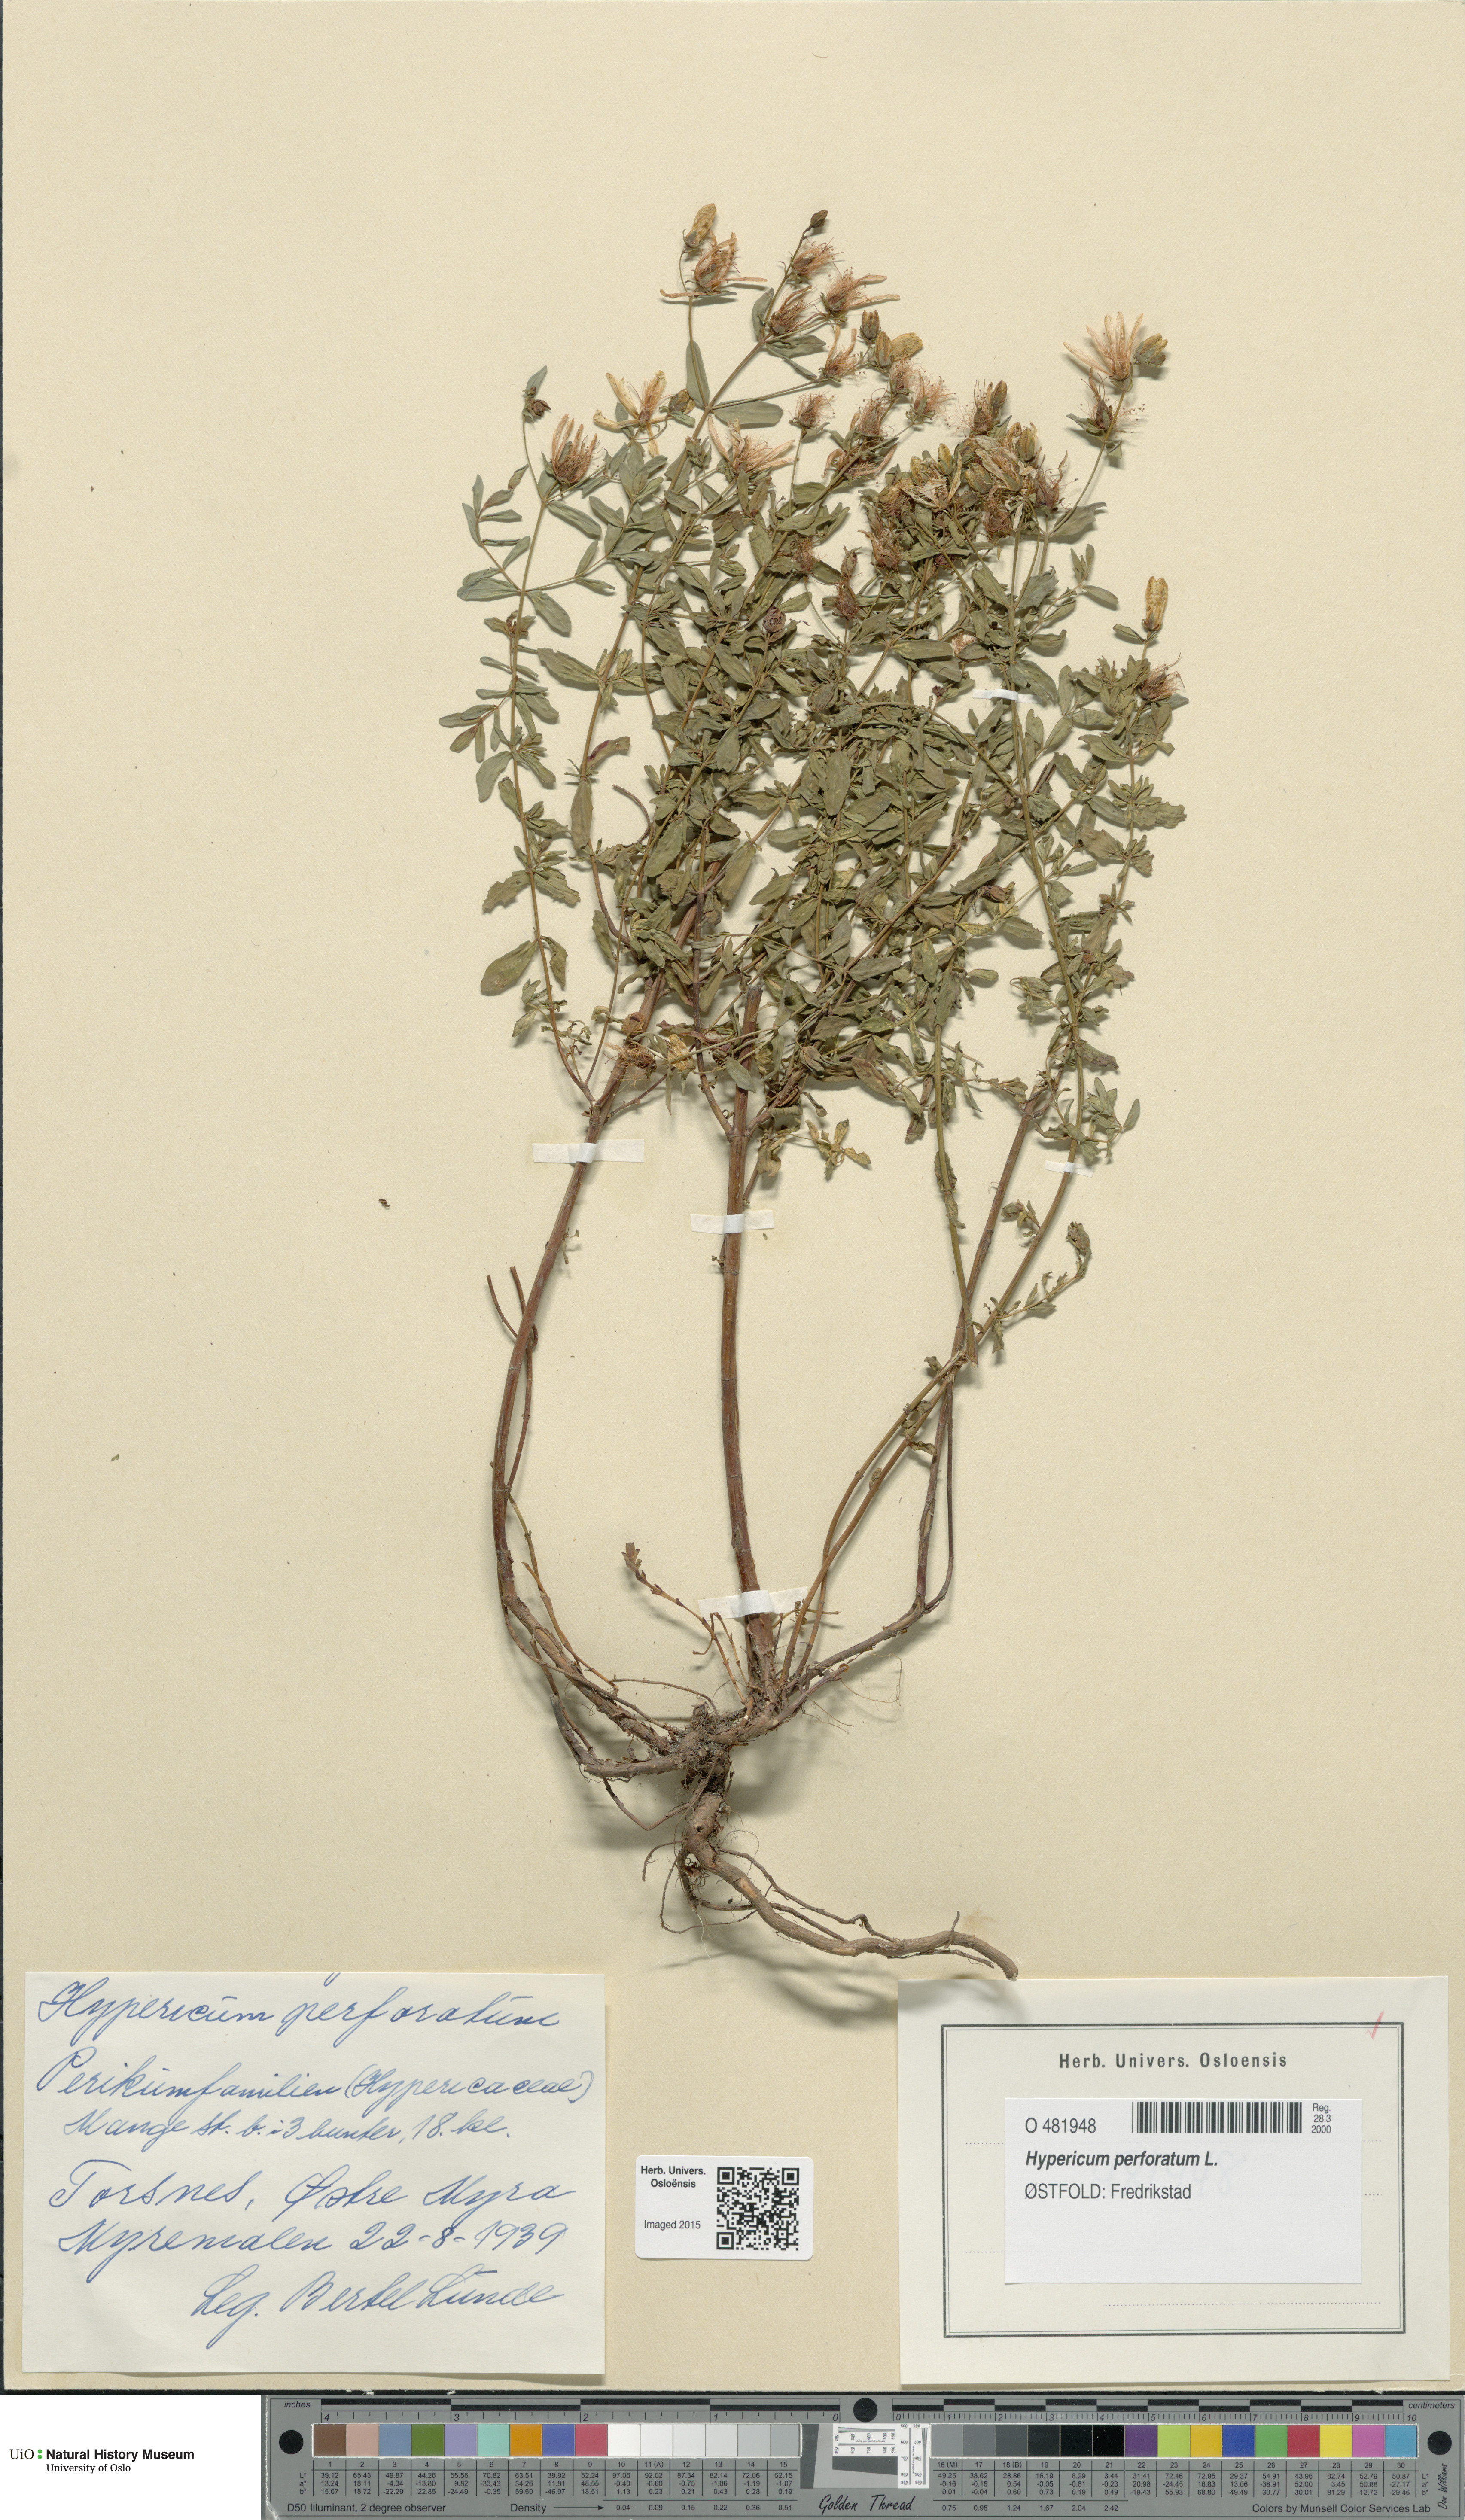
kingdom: Plantae
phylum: Tracheophyta
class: Magnoliopsida
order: Malpighiales
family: Hypericaceae
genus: Hypericum
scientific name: Hypericum perforatum
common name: Common st. johnswort
